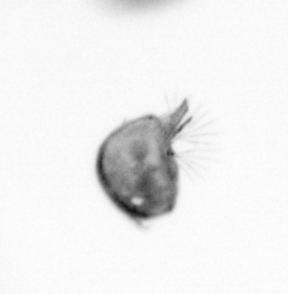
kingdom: Animalia
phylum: Arthropoda
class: Maxillopoda
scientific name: Maxillopoda
